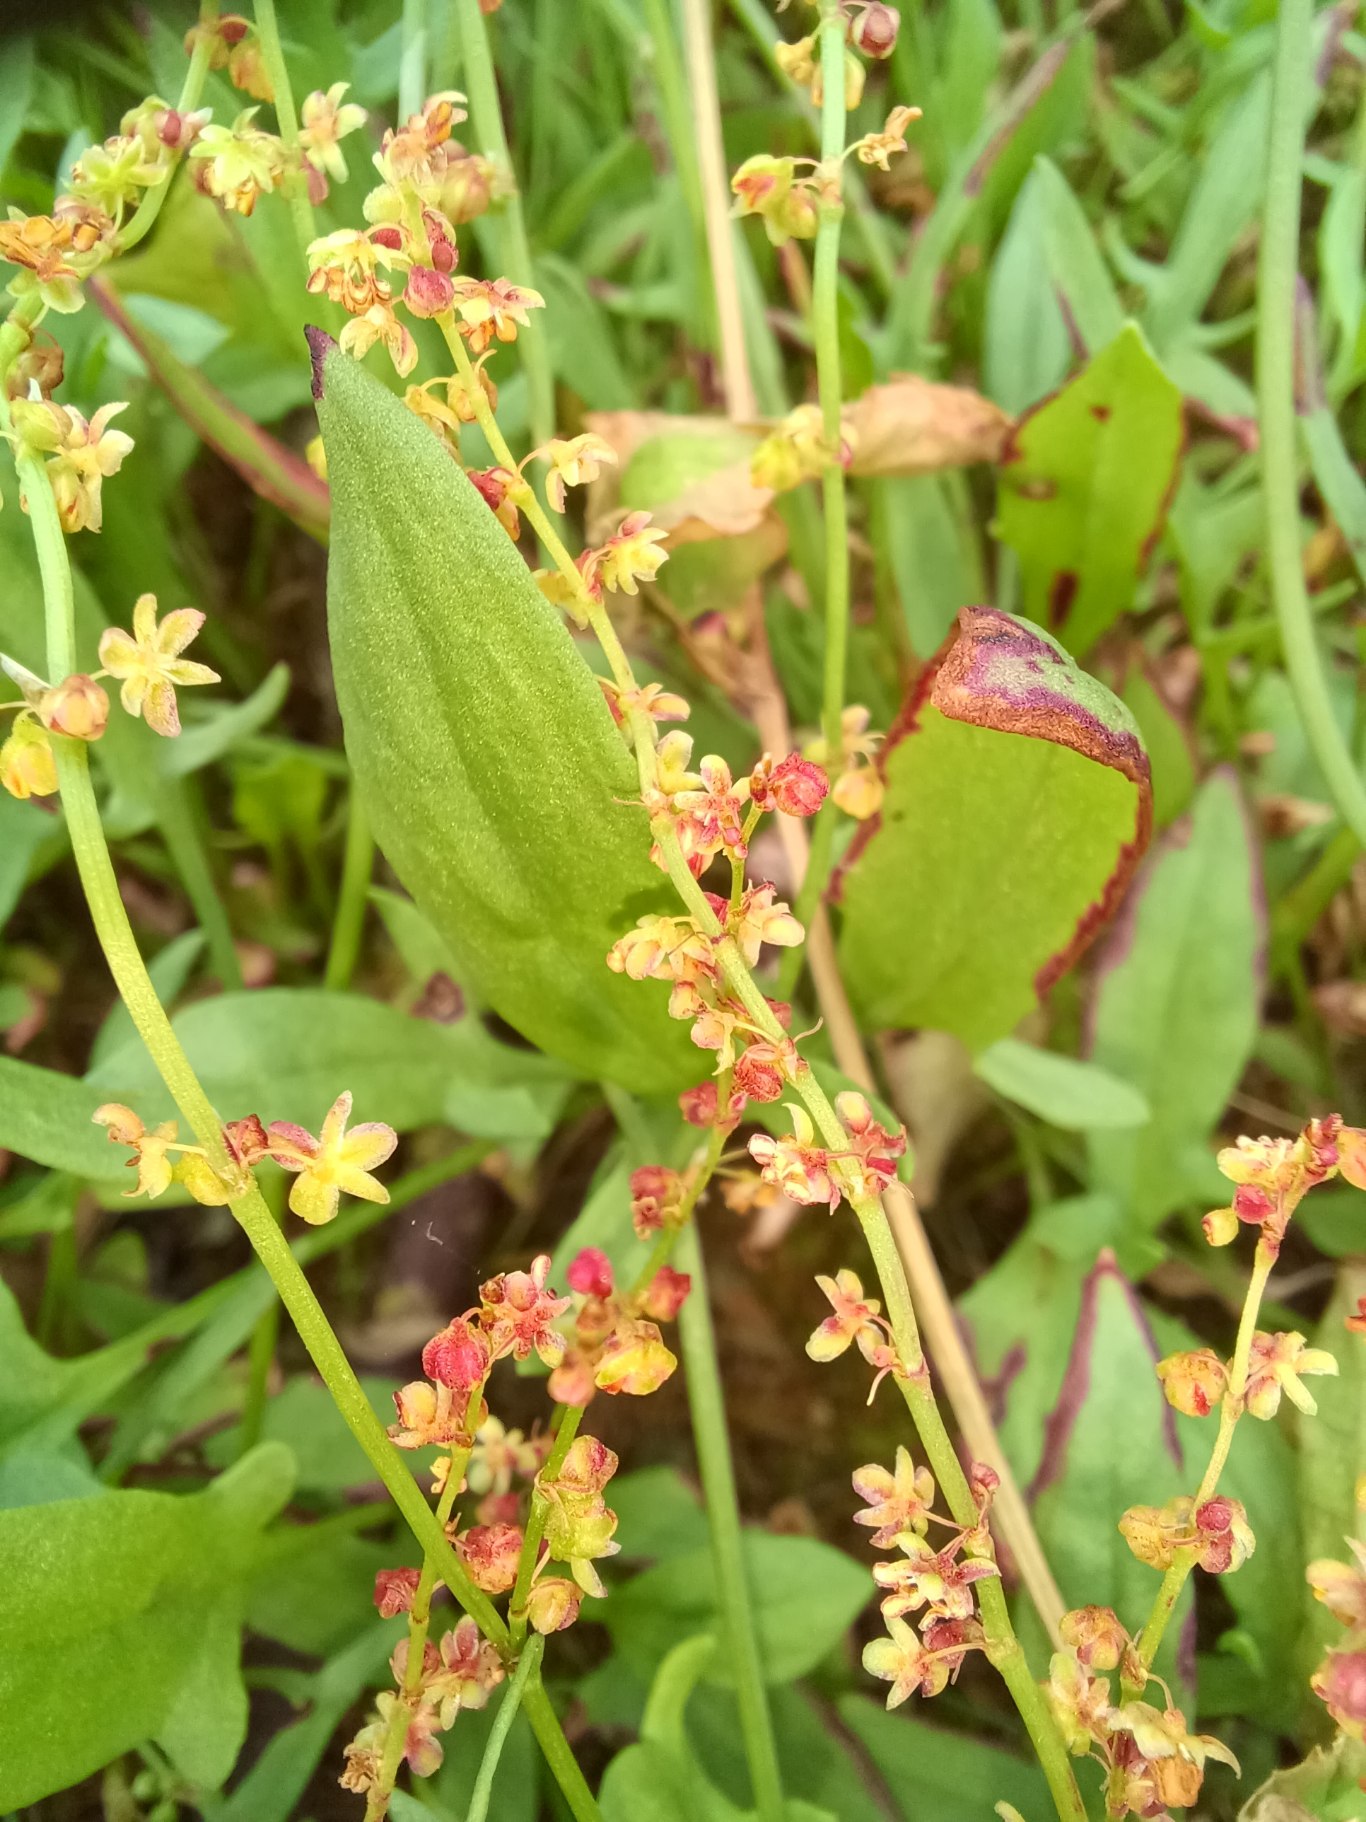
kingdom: Plantae
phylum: Tracheophyta
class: Magnoliopsida
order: Caryophyllales
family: Polygonaceae
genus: Rumex
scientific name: Rumex acetosella
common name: Rødknæ
